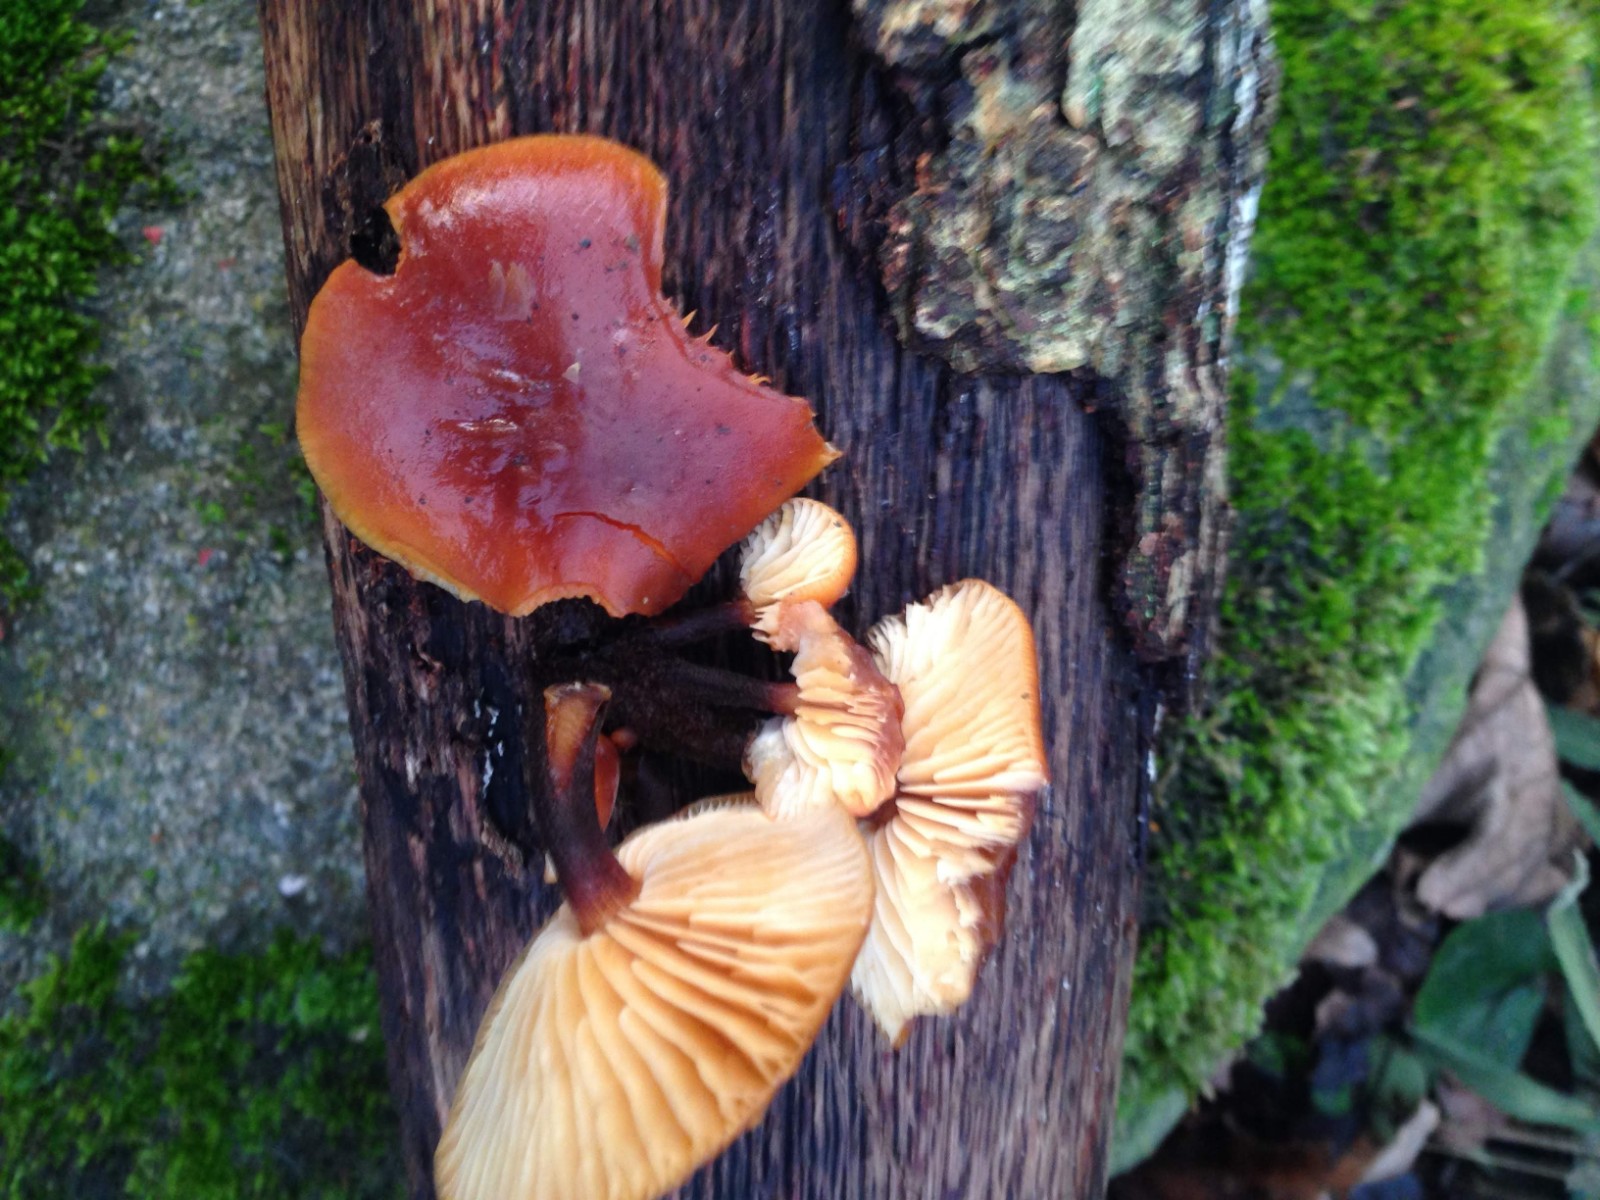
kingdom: Fungi
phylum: Basidiomycota
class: Agaricomycetes
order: Agaricales
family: Physalacriaceae
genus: Flammulina
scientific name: Flammulina velutipes
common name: gul fløjlsfod
